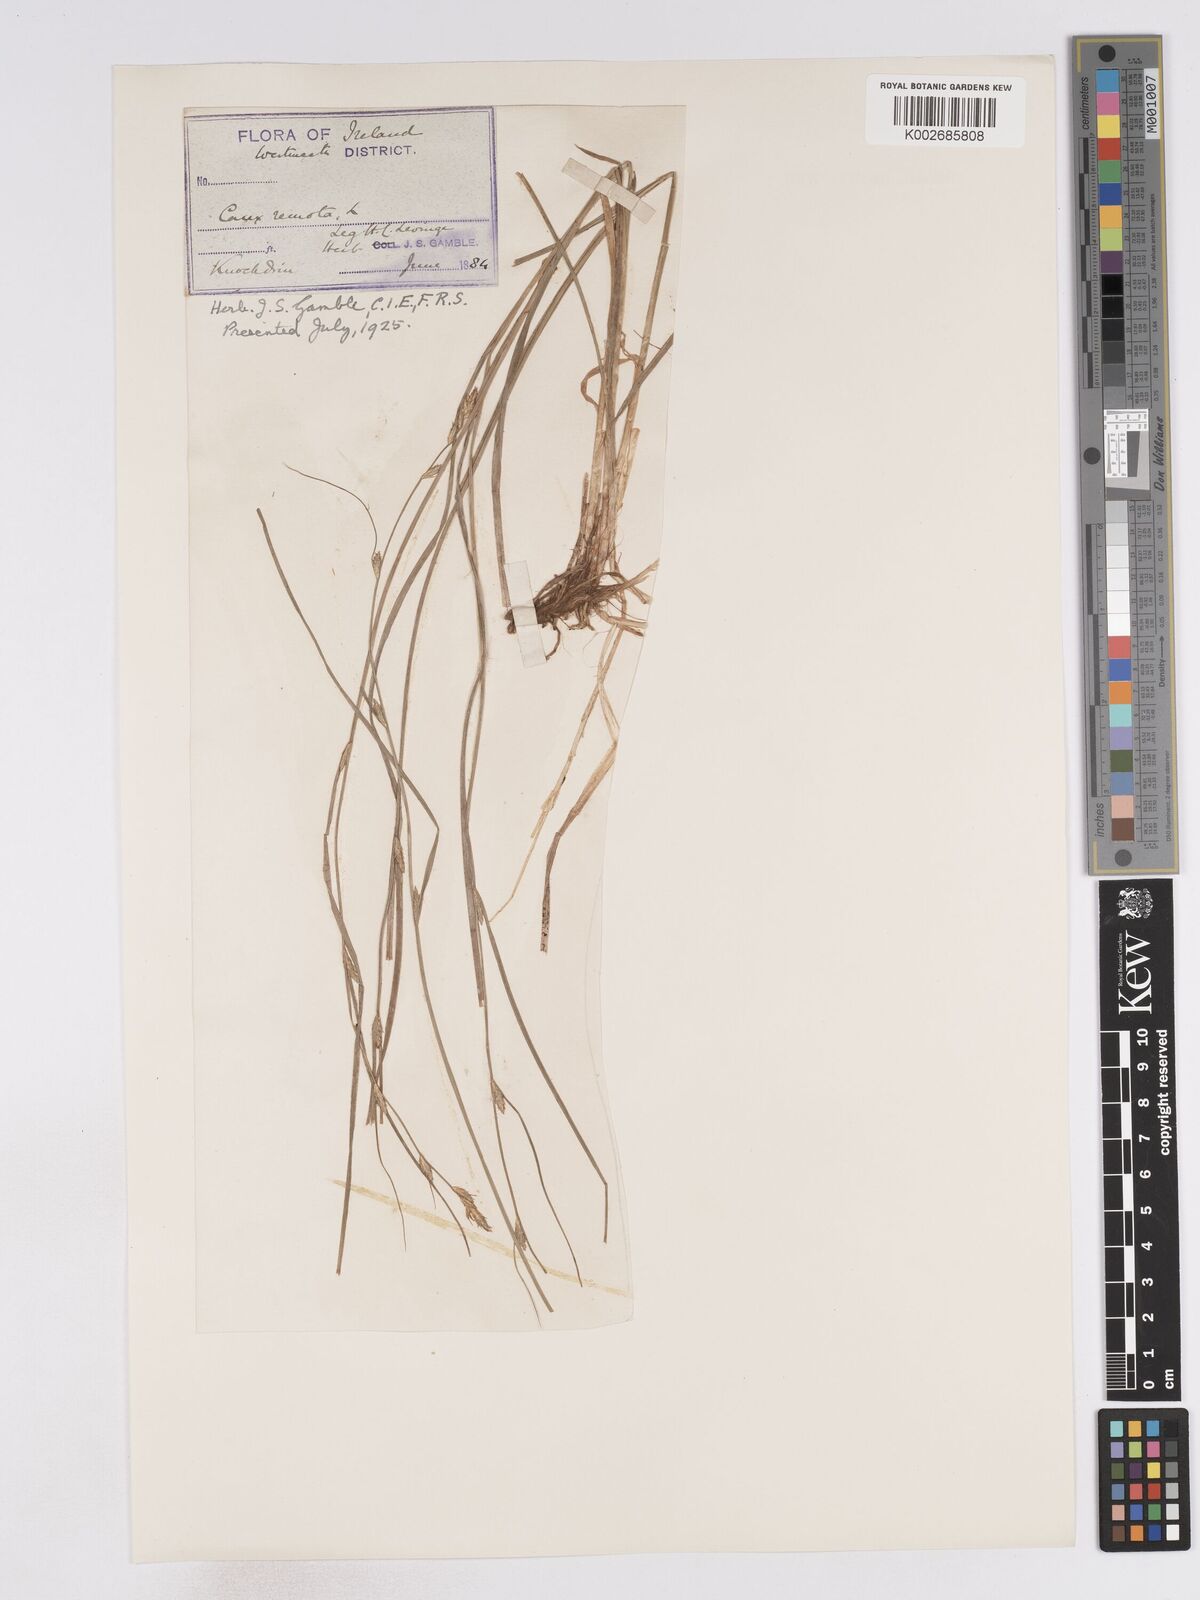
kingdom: Plantae
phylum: Tracheophyta
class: Liliopsida
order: Poales
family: Cyperaceae
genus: Carex
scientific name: Carex remota
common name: Remote sedge
